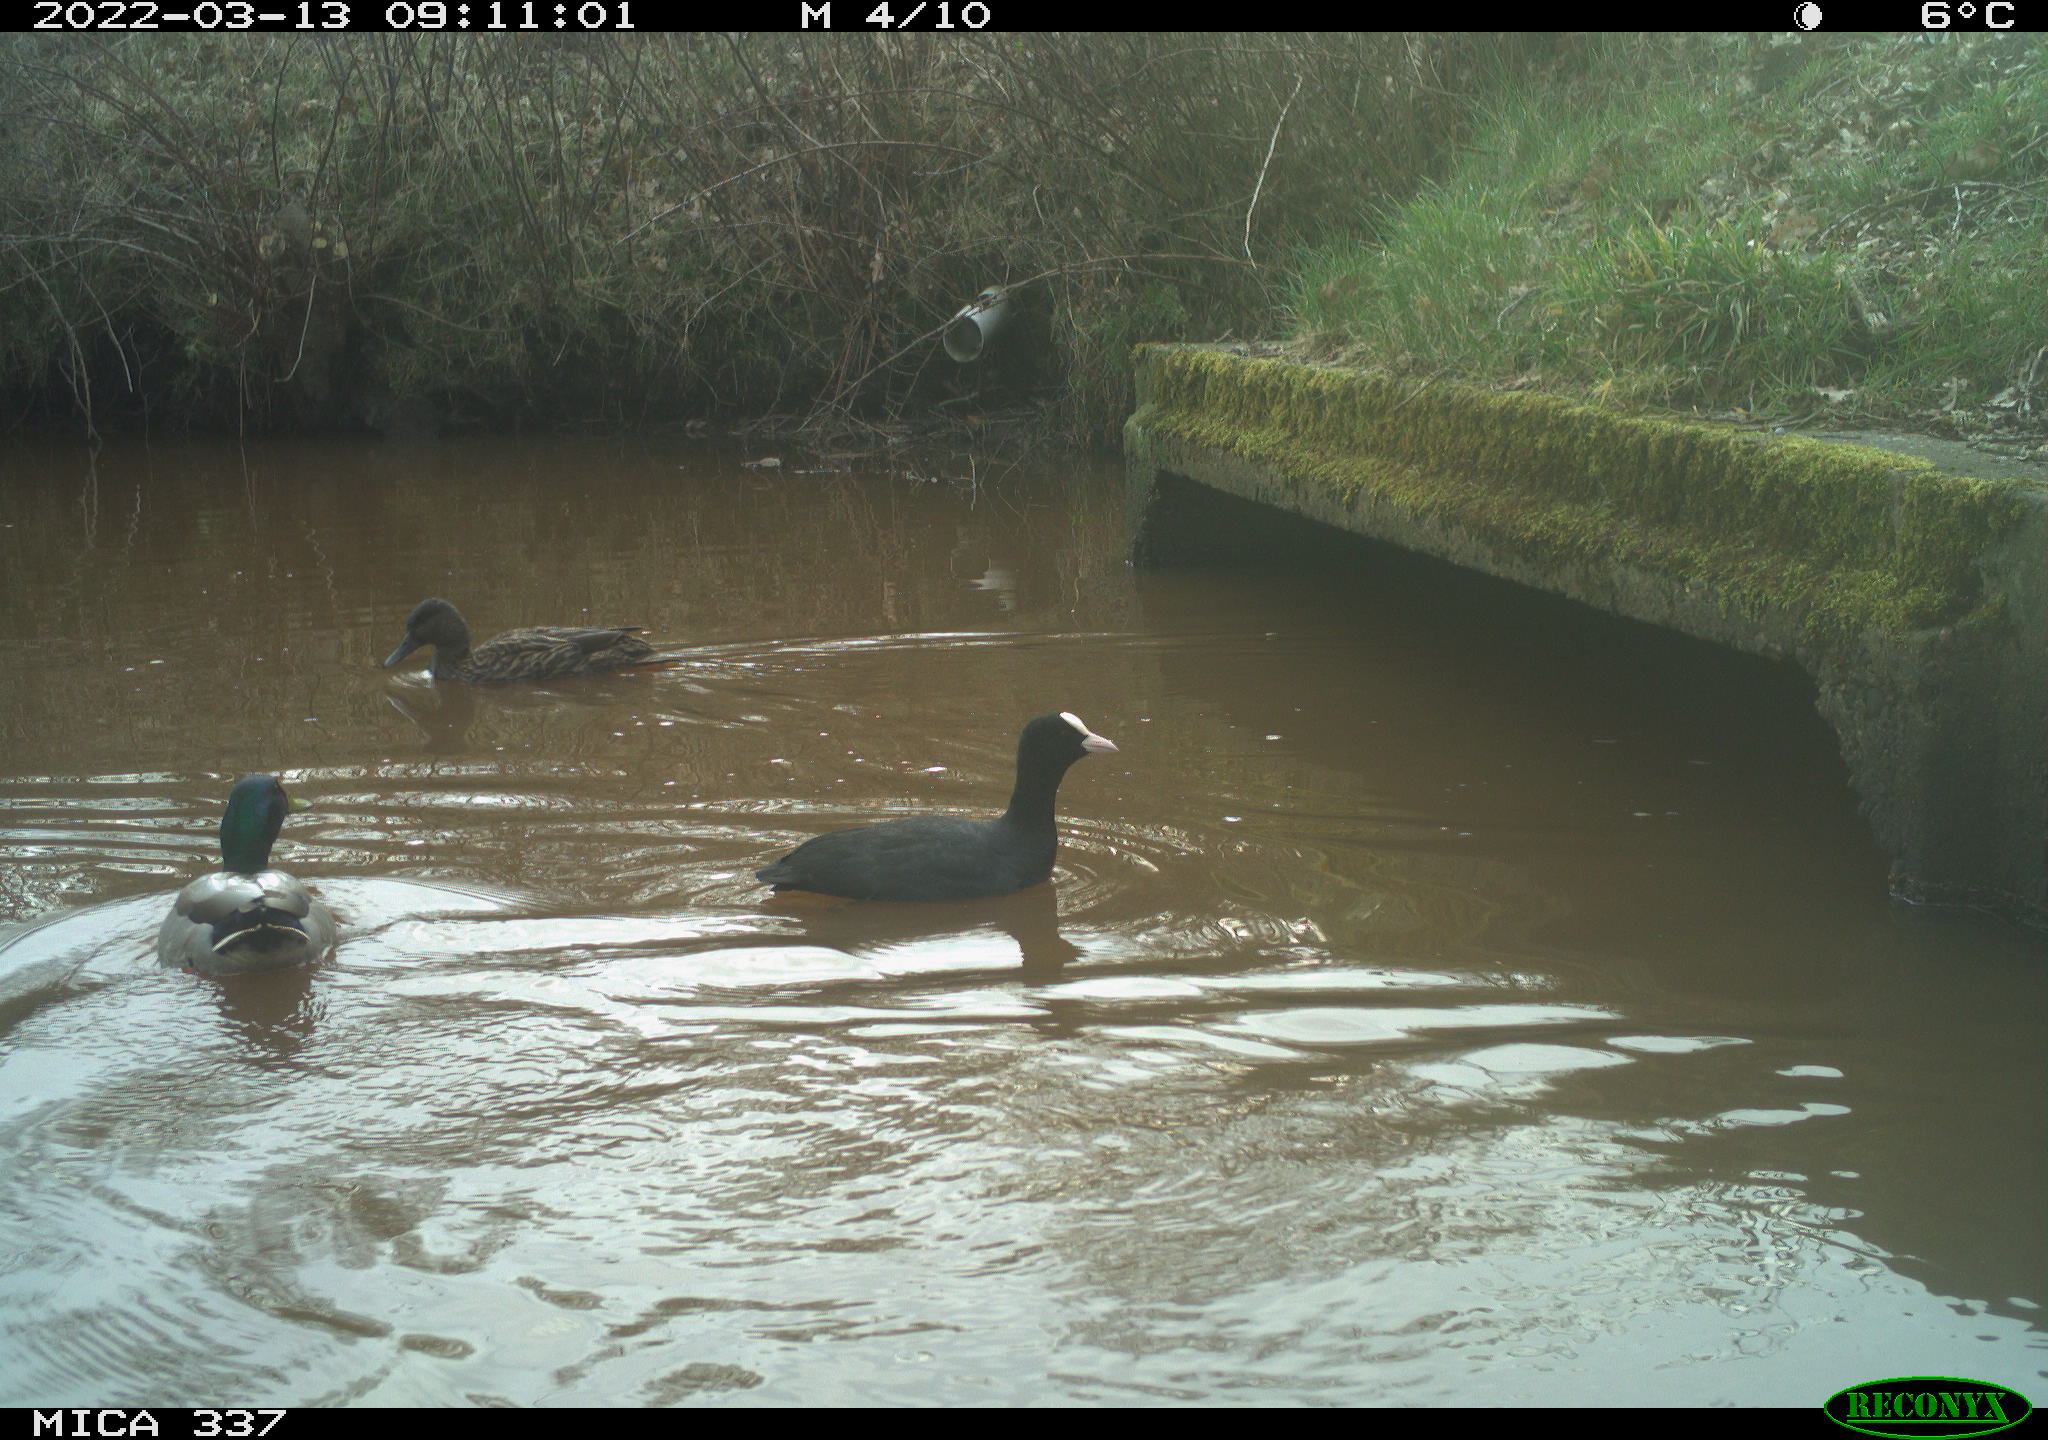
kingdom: Animalia
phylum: Chordata
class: Aves
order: Anseriformes
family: Anatidae
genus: Anas
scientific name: Anas platyrhynchos
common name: Mallard
